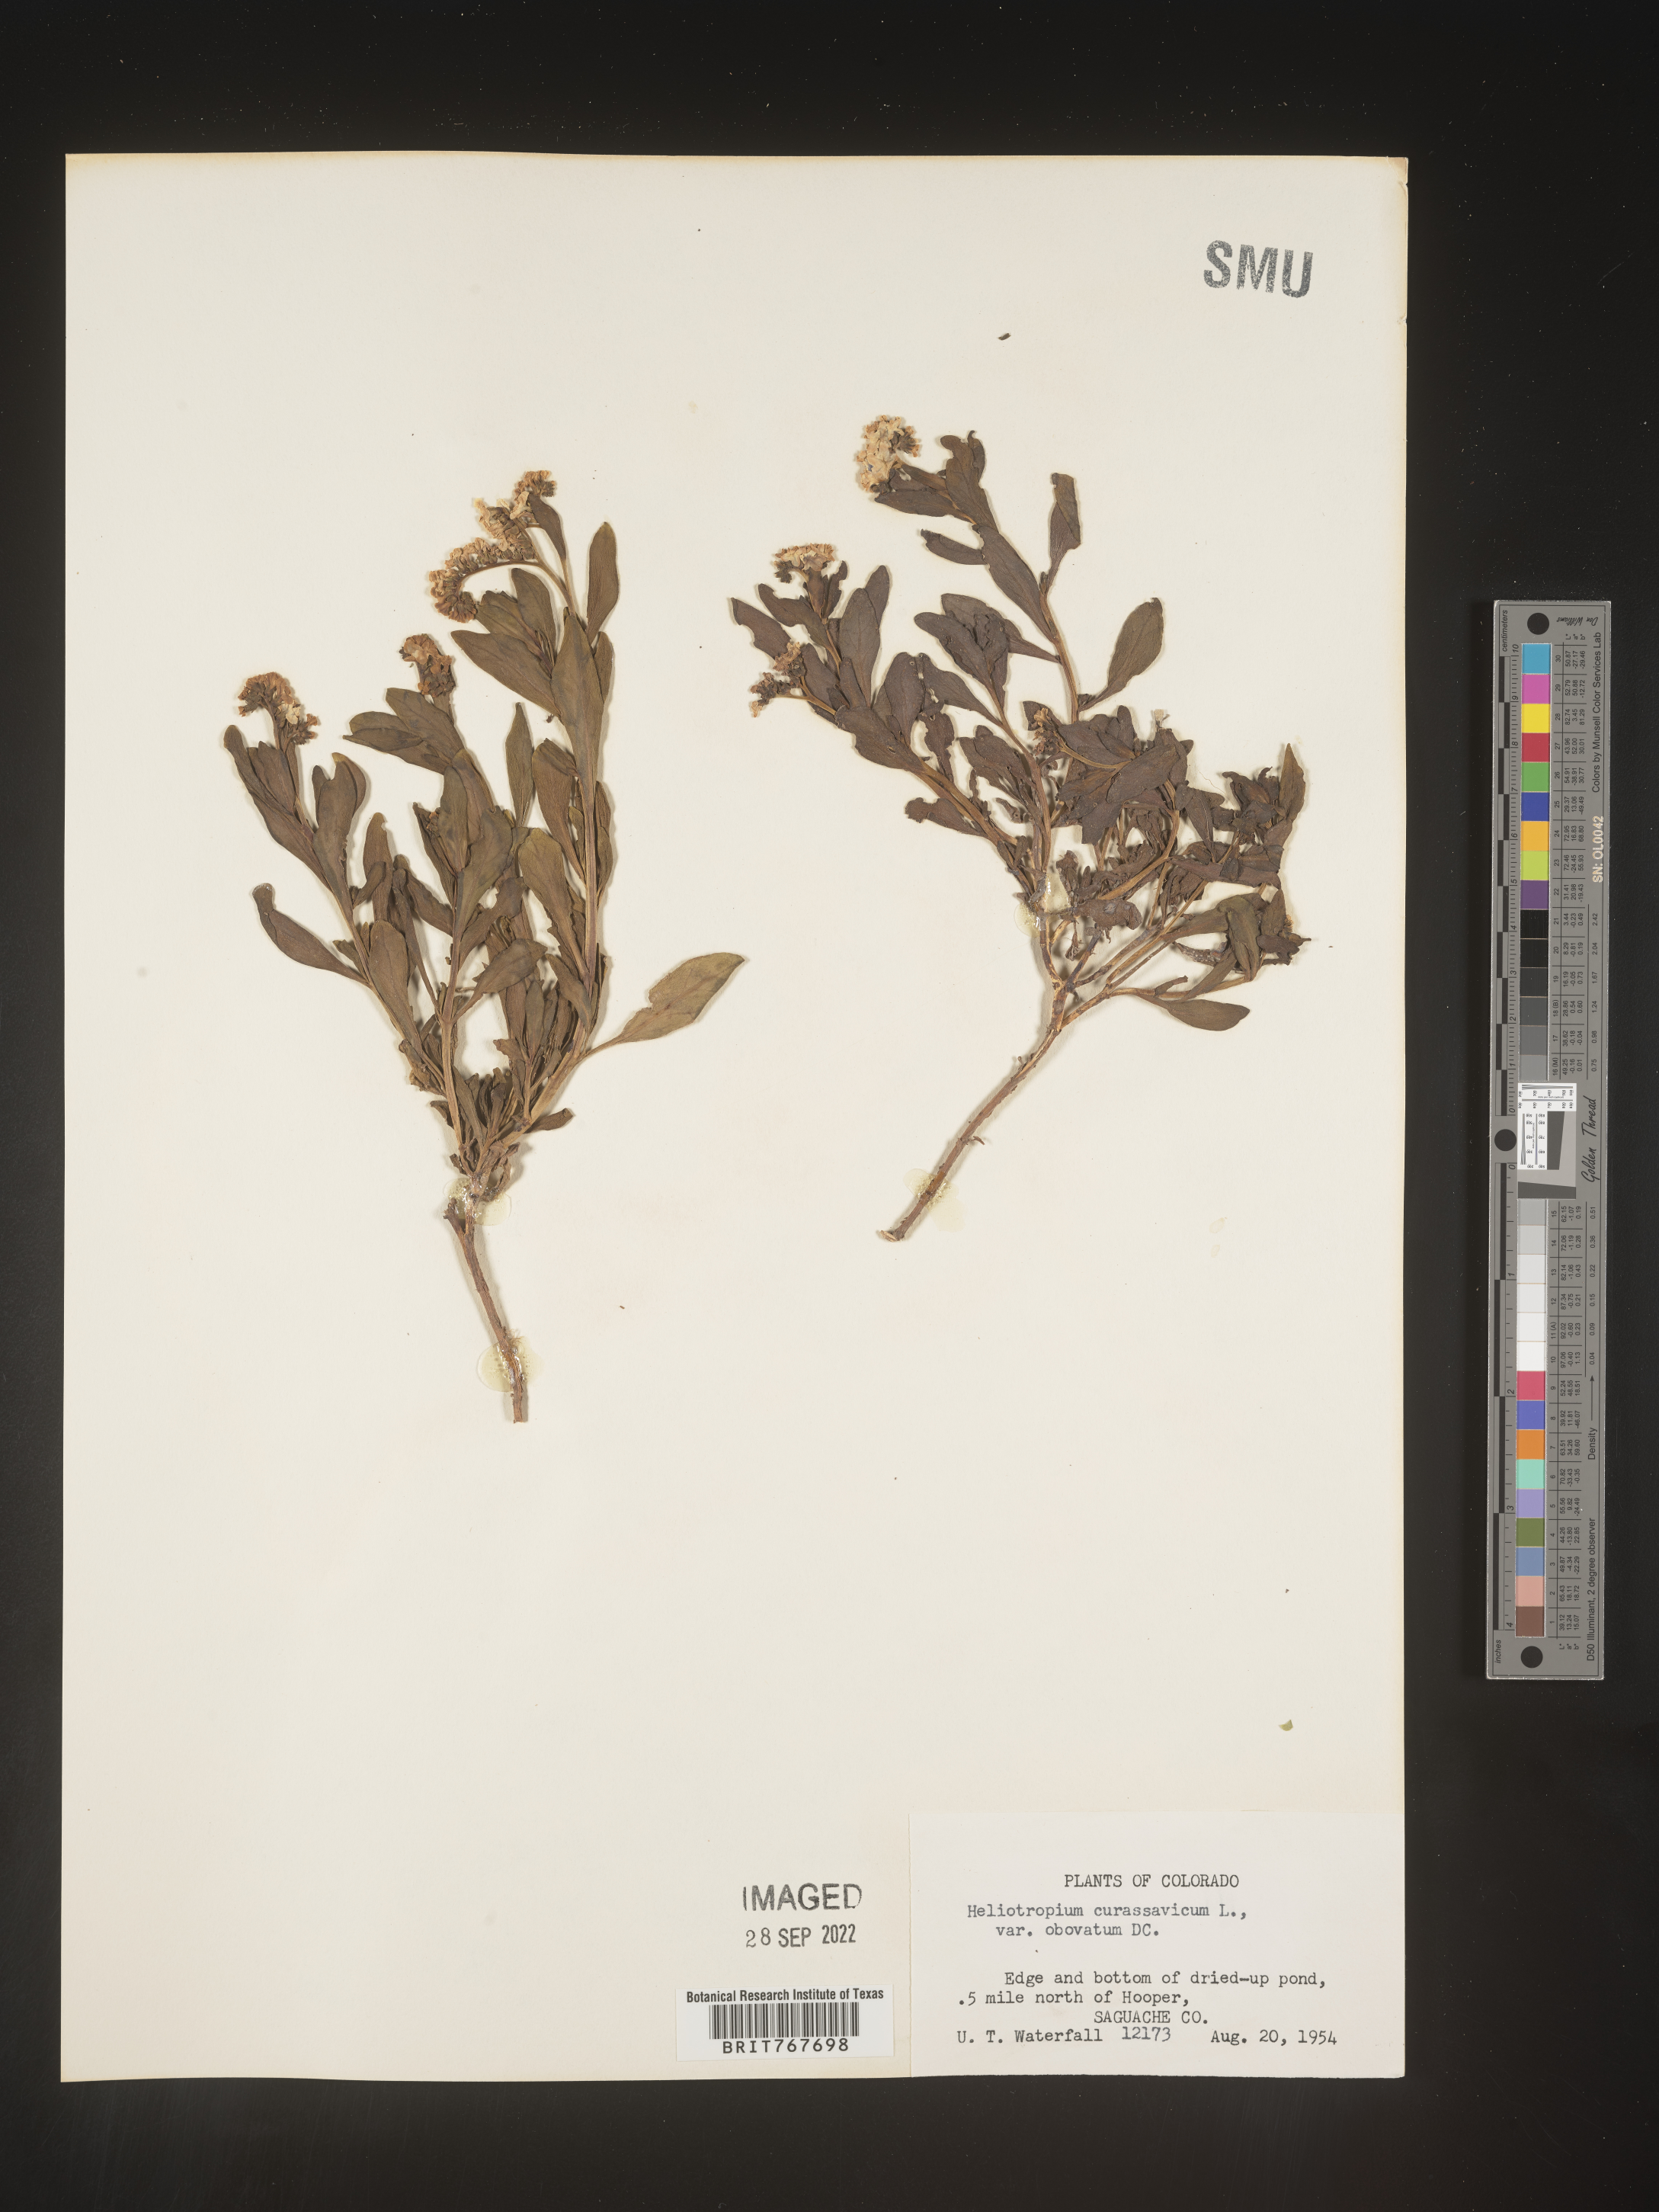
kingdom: Plantae
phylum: Tracheophyta
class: Magnoliopsida
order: Boraginales
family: Heliotropiaceae
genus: Heliotropium
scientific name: Heliotropium curassavicum
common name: Seaside heliotrope
